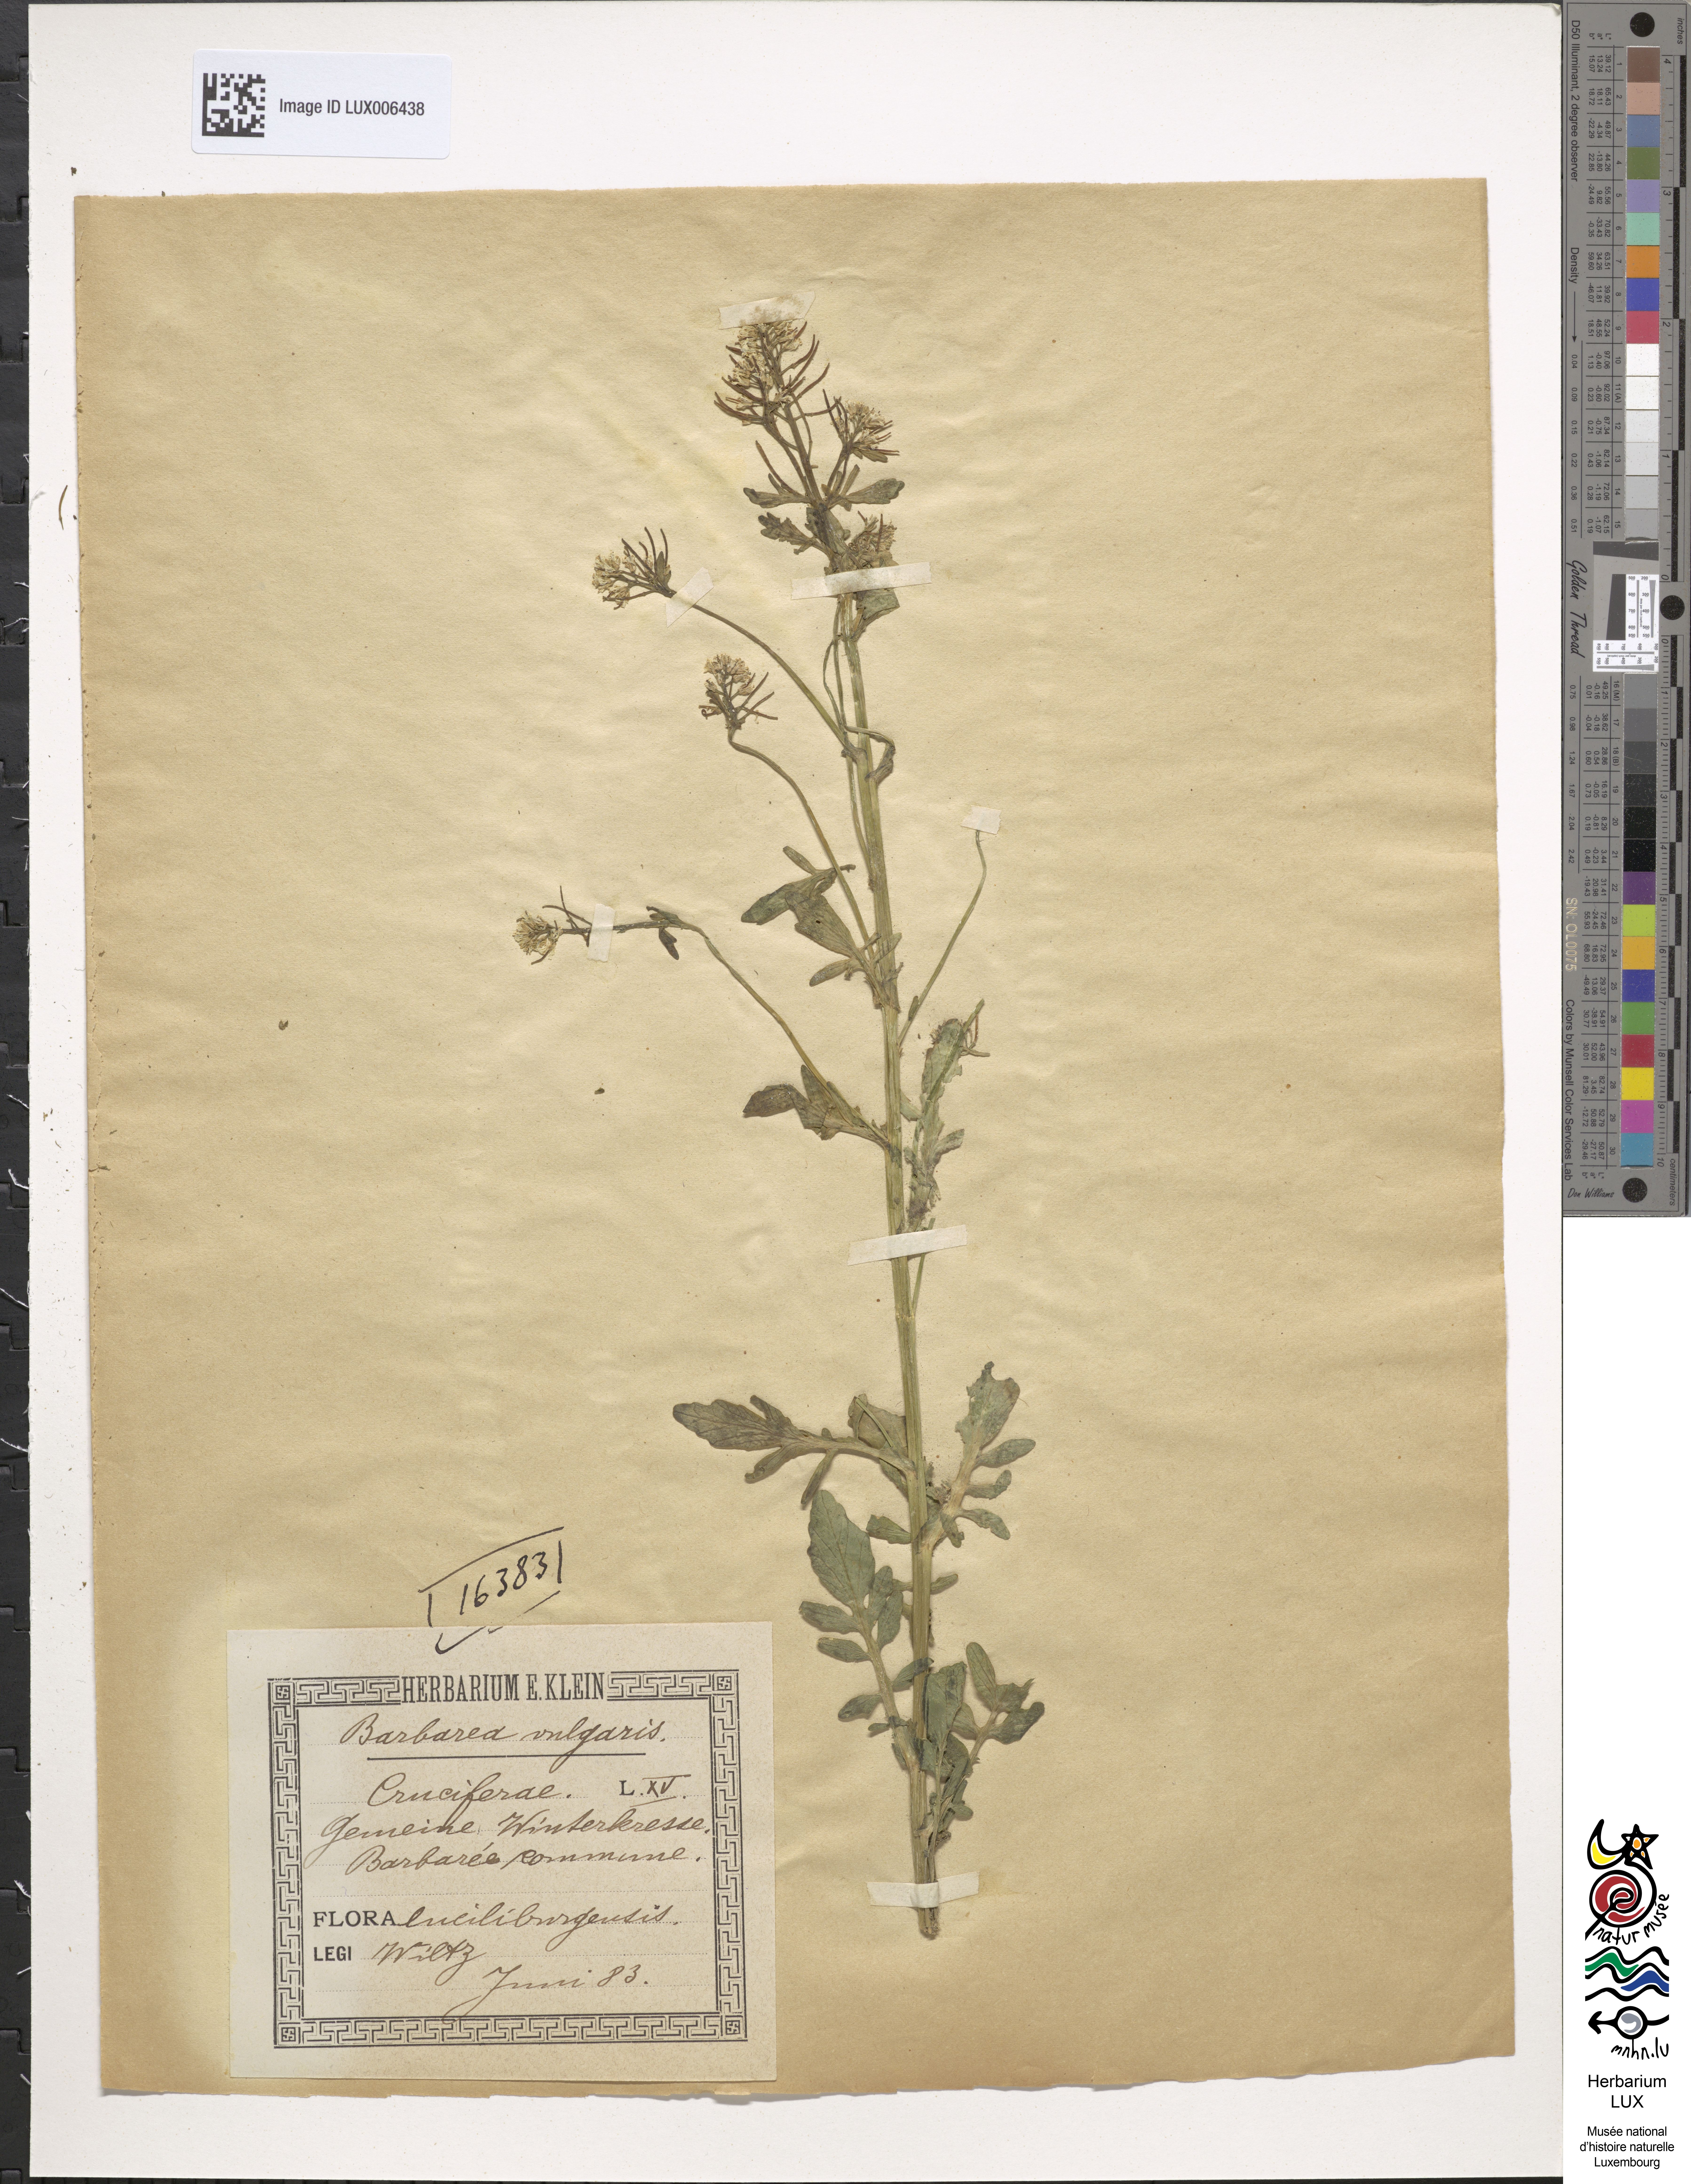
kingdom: Plantae
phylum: Tracheophyta
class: Magnoliopsida
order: Brassicales
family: Brassicaceae
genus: Barbarea
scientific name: Barbarea vulgaris
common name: Cressy-greens
